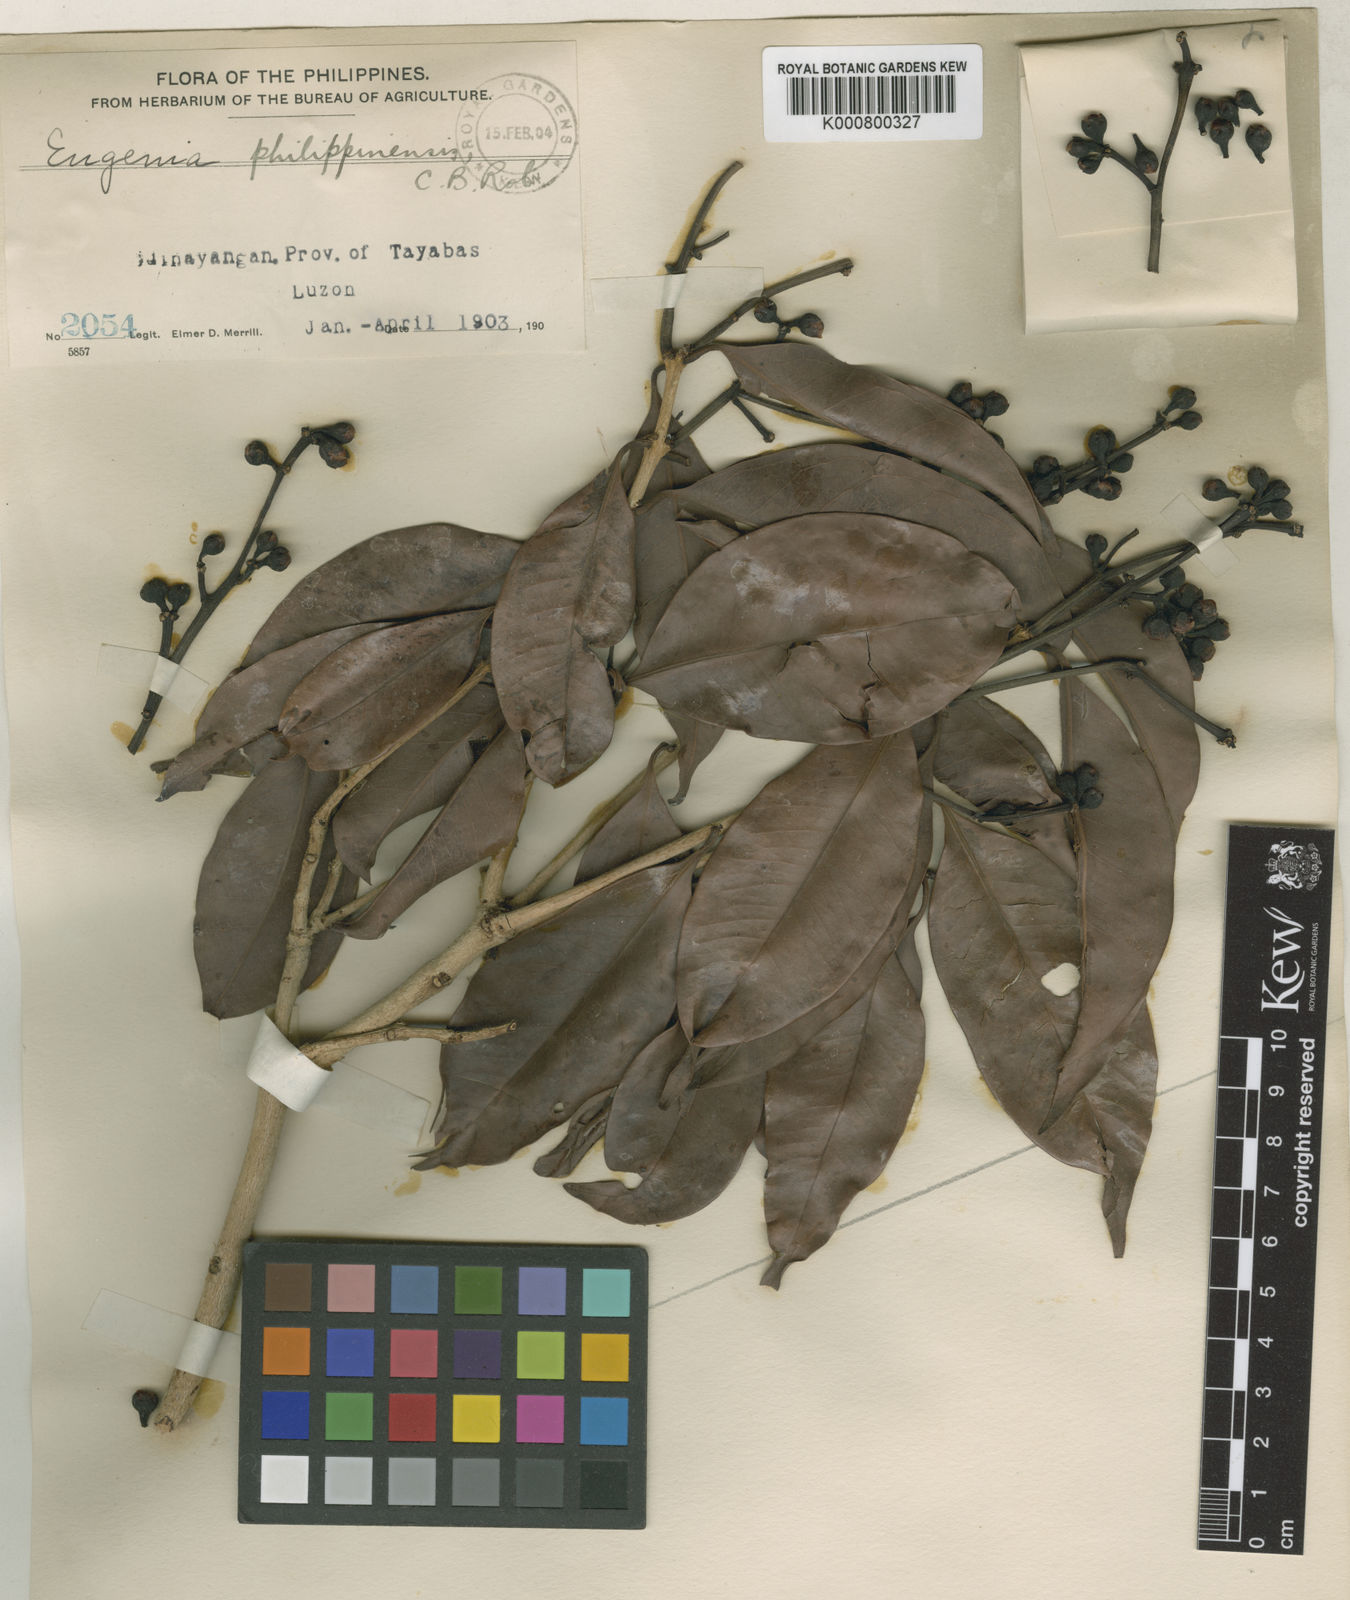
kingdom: Plantae
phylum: Tracheophyta
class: Magnoliopsida
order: Myrtales
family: Myrtaceae
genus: Syzygium
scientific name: Syzygium philippinense
